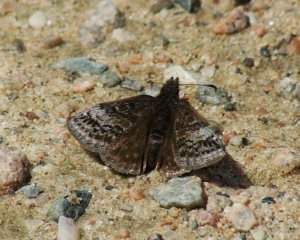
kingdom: Animalia
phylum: Arthropoda
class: Insecta
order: Lepidoptera
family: Hesperiidae
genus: Erynnis
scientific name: Erynnis icelus
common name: Dreamy Duskywing
